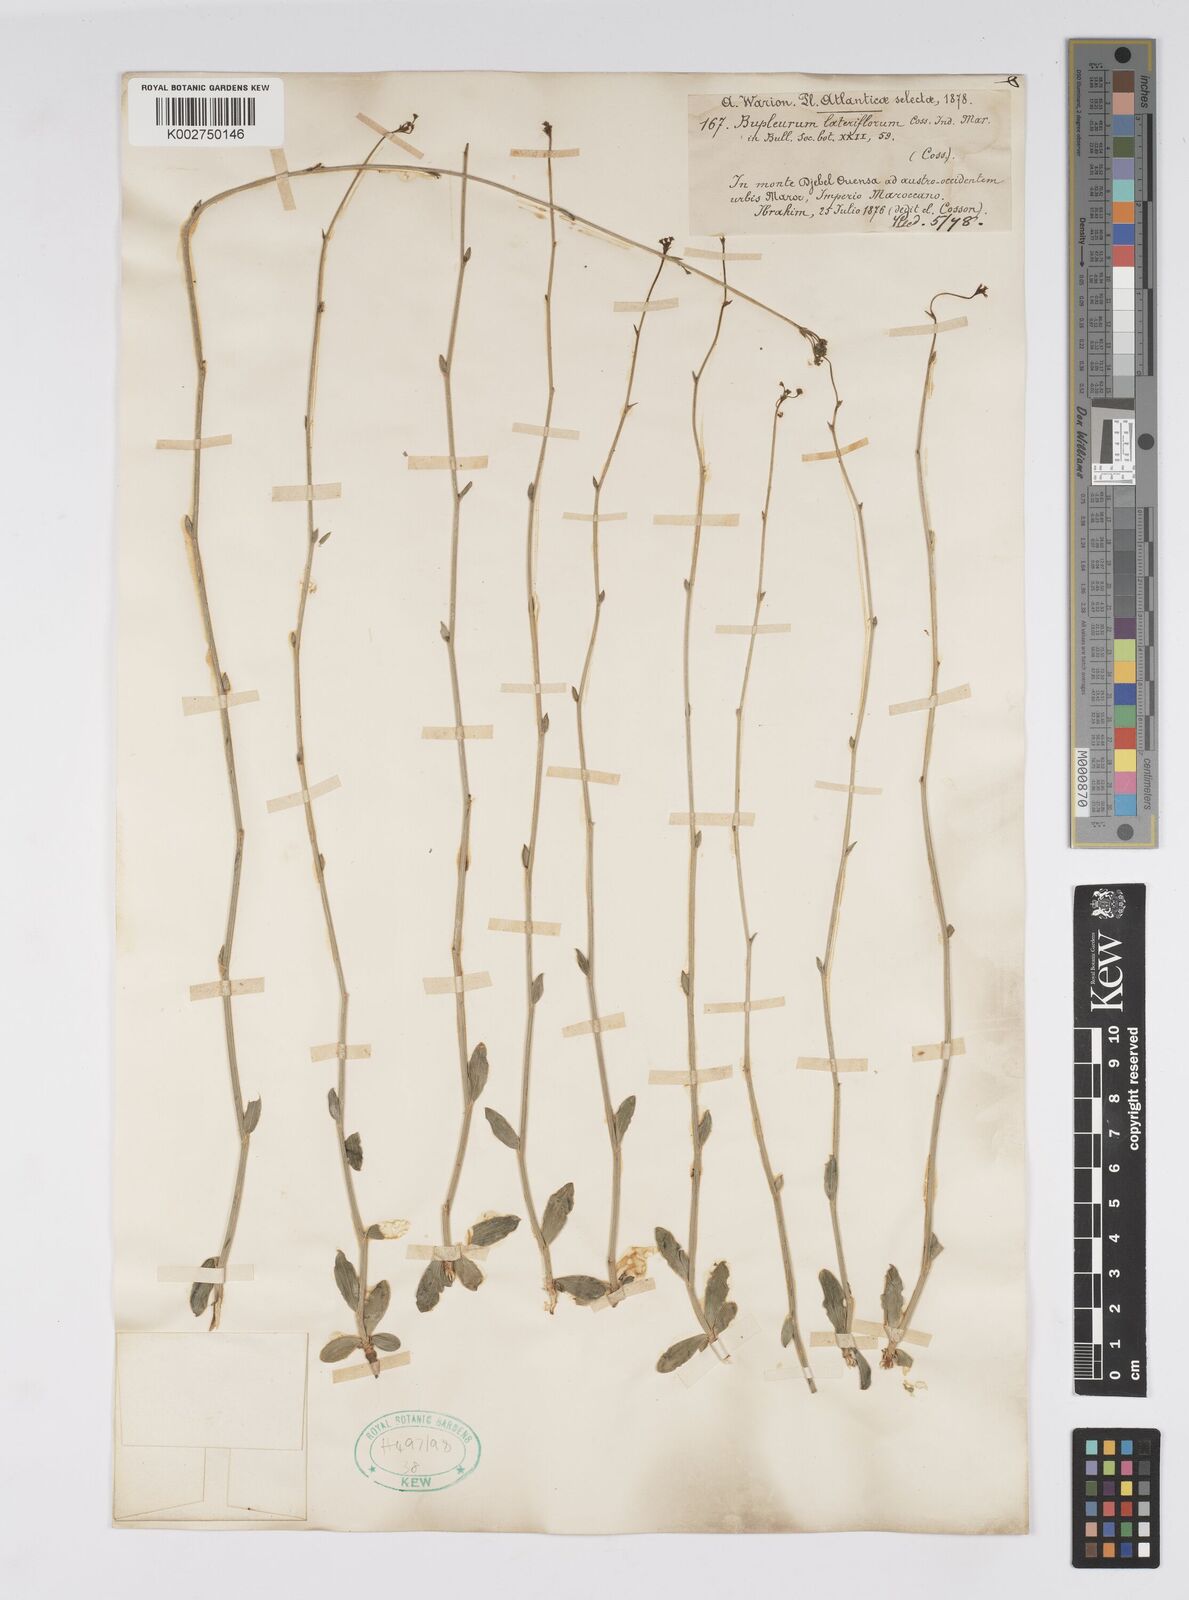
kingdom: Plantae
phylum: Tracheophyta
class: Magnoliopsida
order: Apiales
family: Apiaceae
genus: Bupleurum
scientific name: Bupleurum lateriflorum
